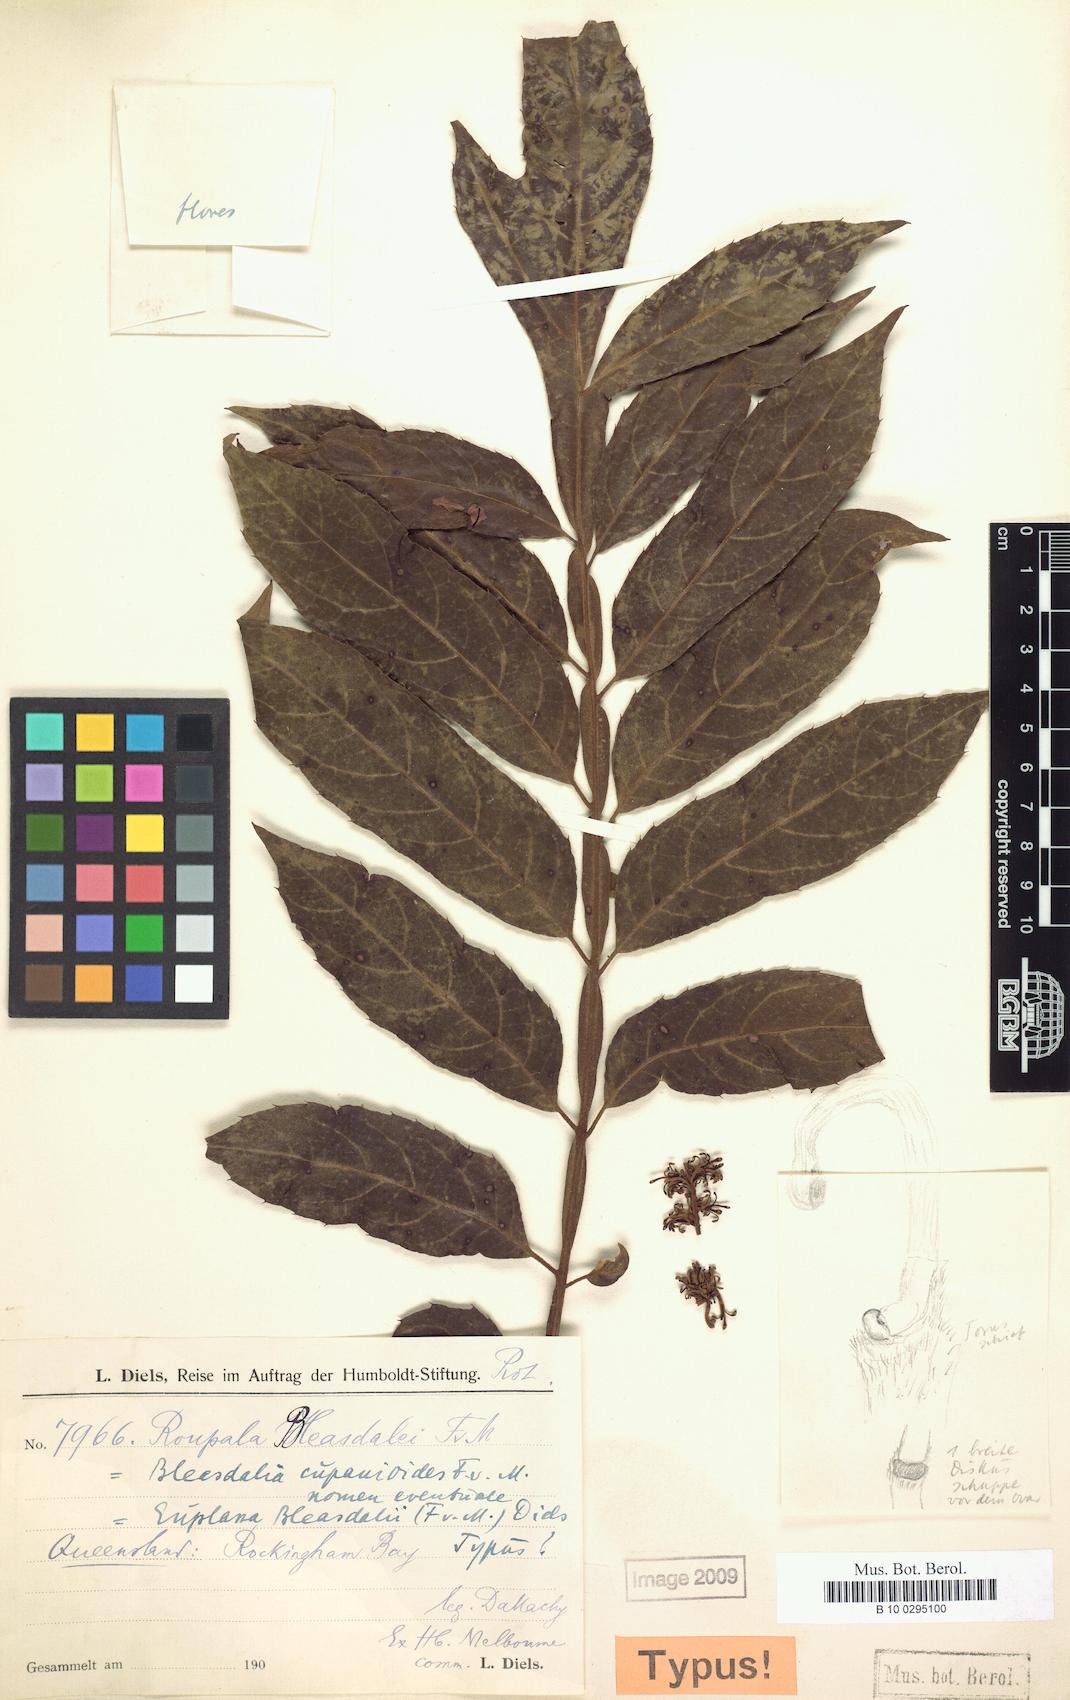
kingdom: Plantae
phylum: Tracheophyta
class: Magnoliopsida
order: Proteales
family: Proteaceae
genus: Gevuina
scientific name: Gevuina bleasdalei
